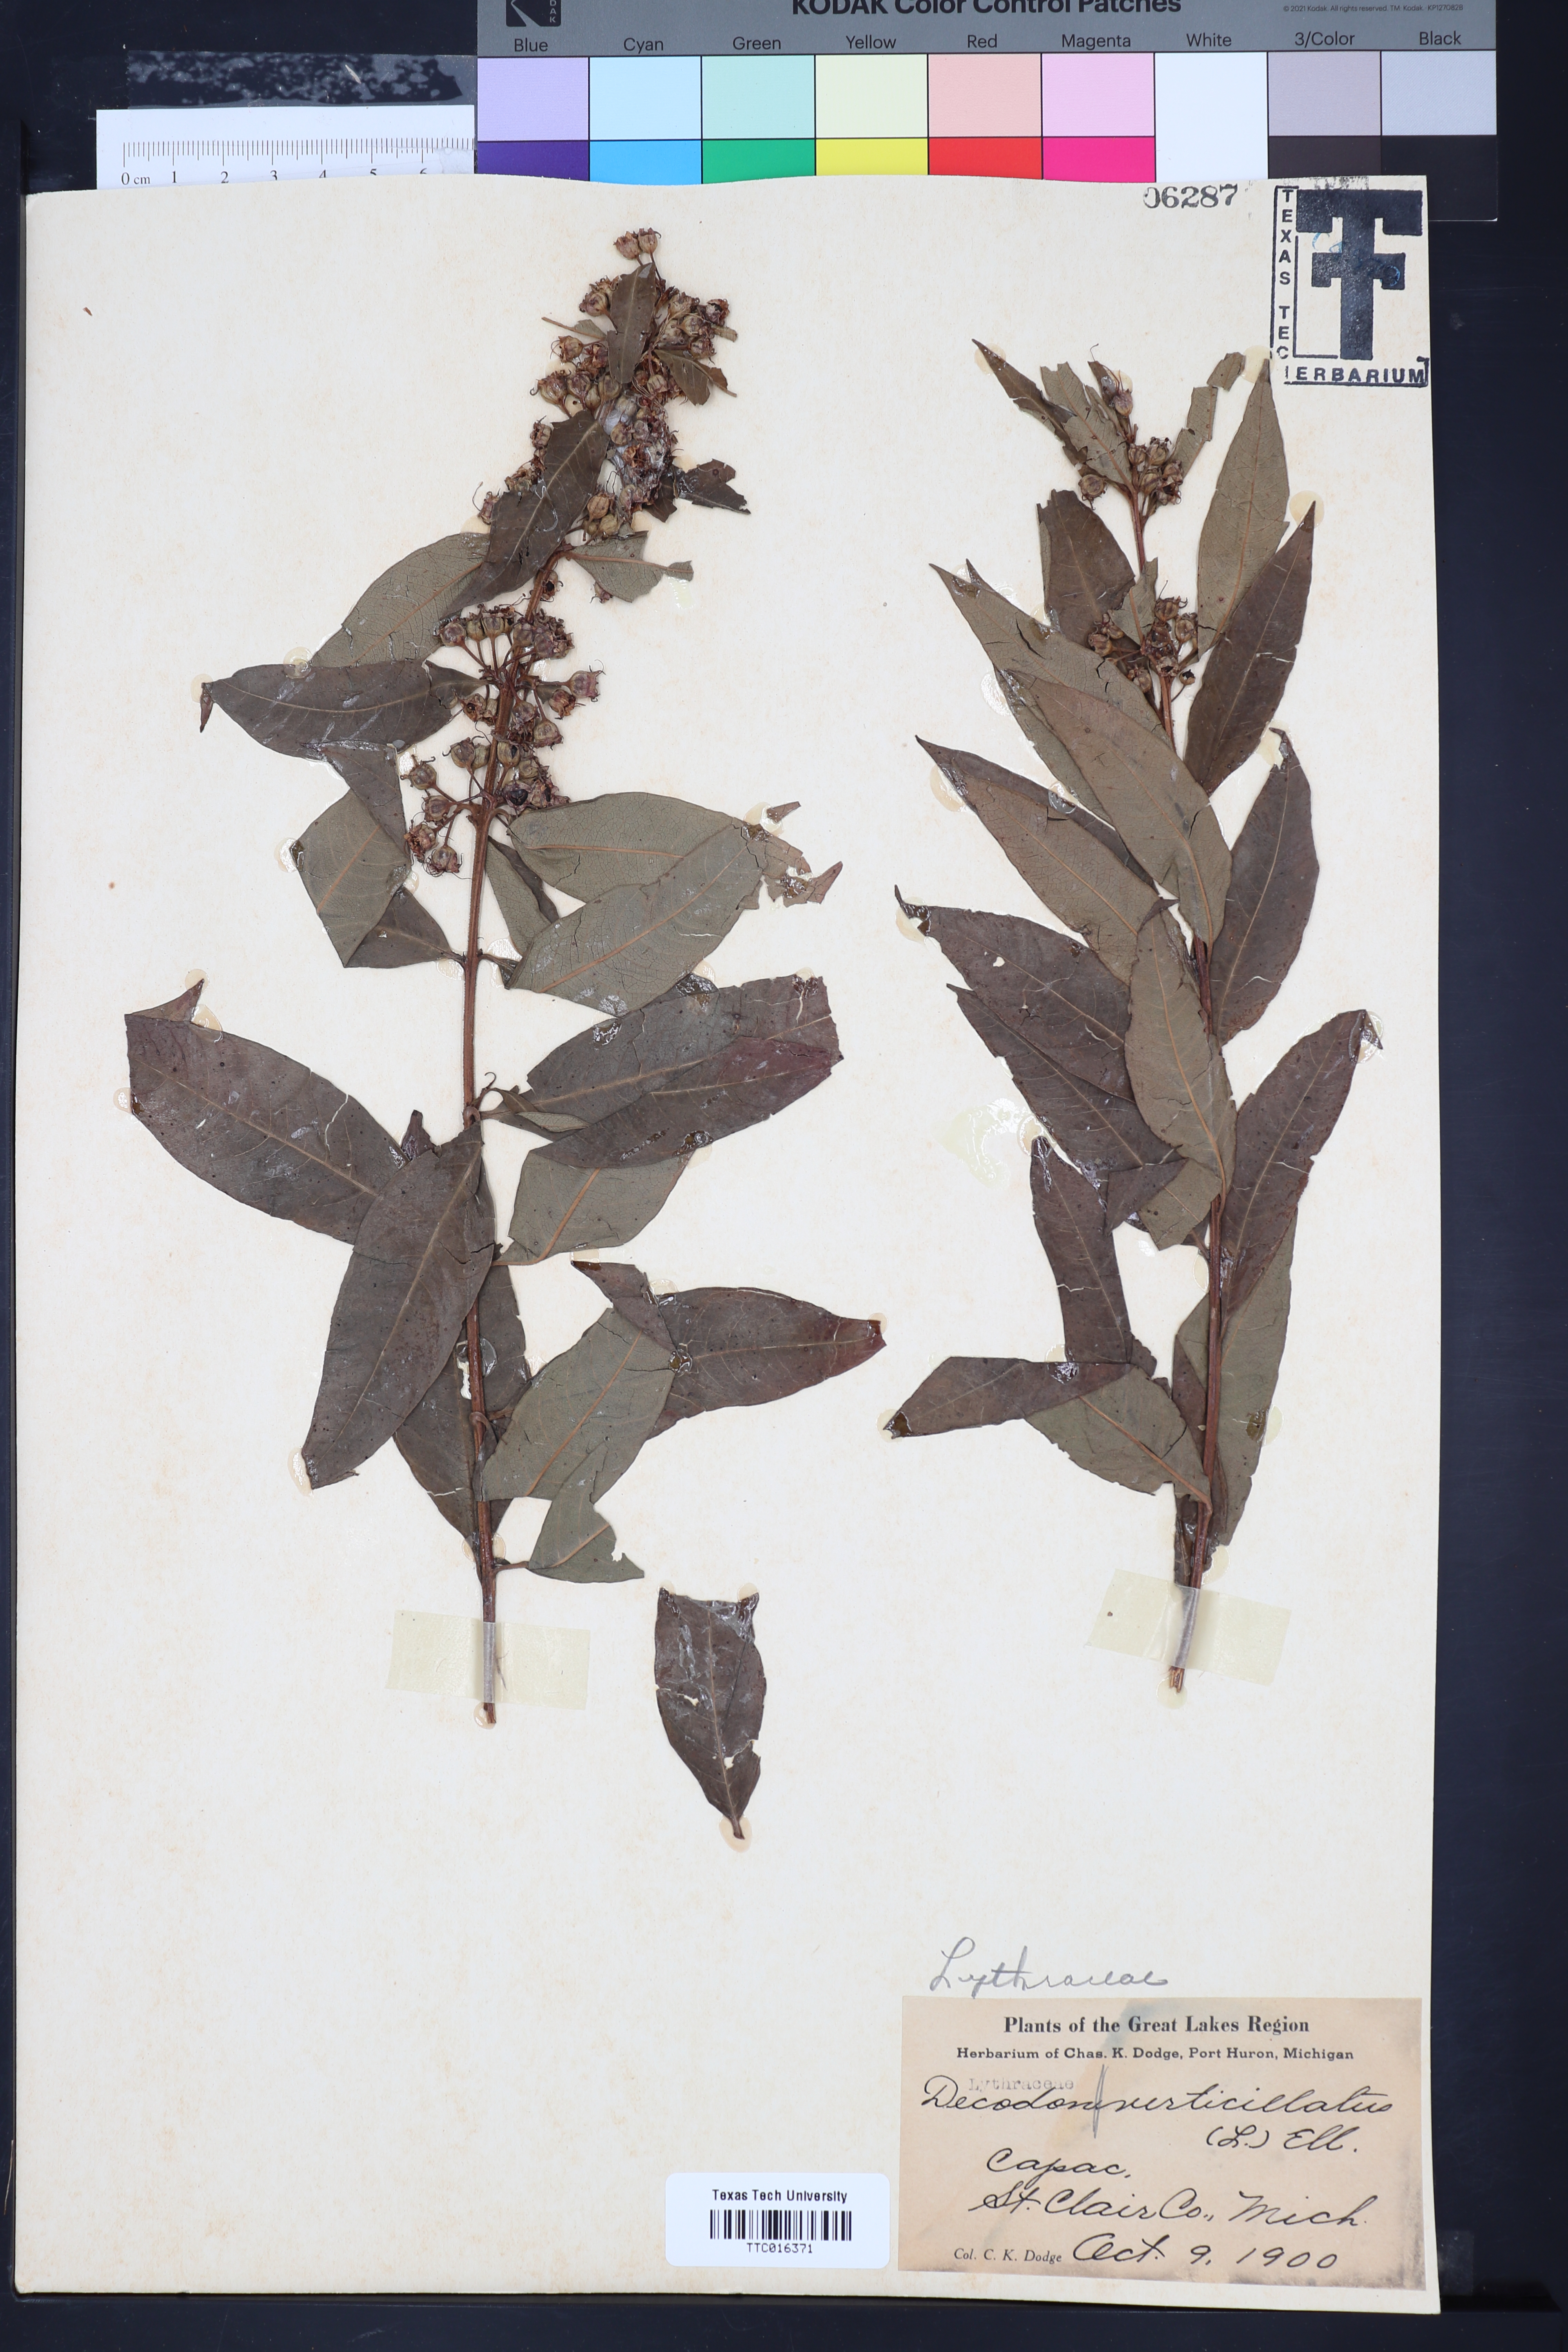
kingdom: Plantae
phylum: Tracheophyta
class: Magnoliopsida
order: Myrtales
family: Lythraceae
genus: Decodon
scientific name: Decodon
